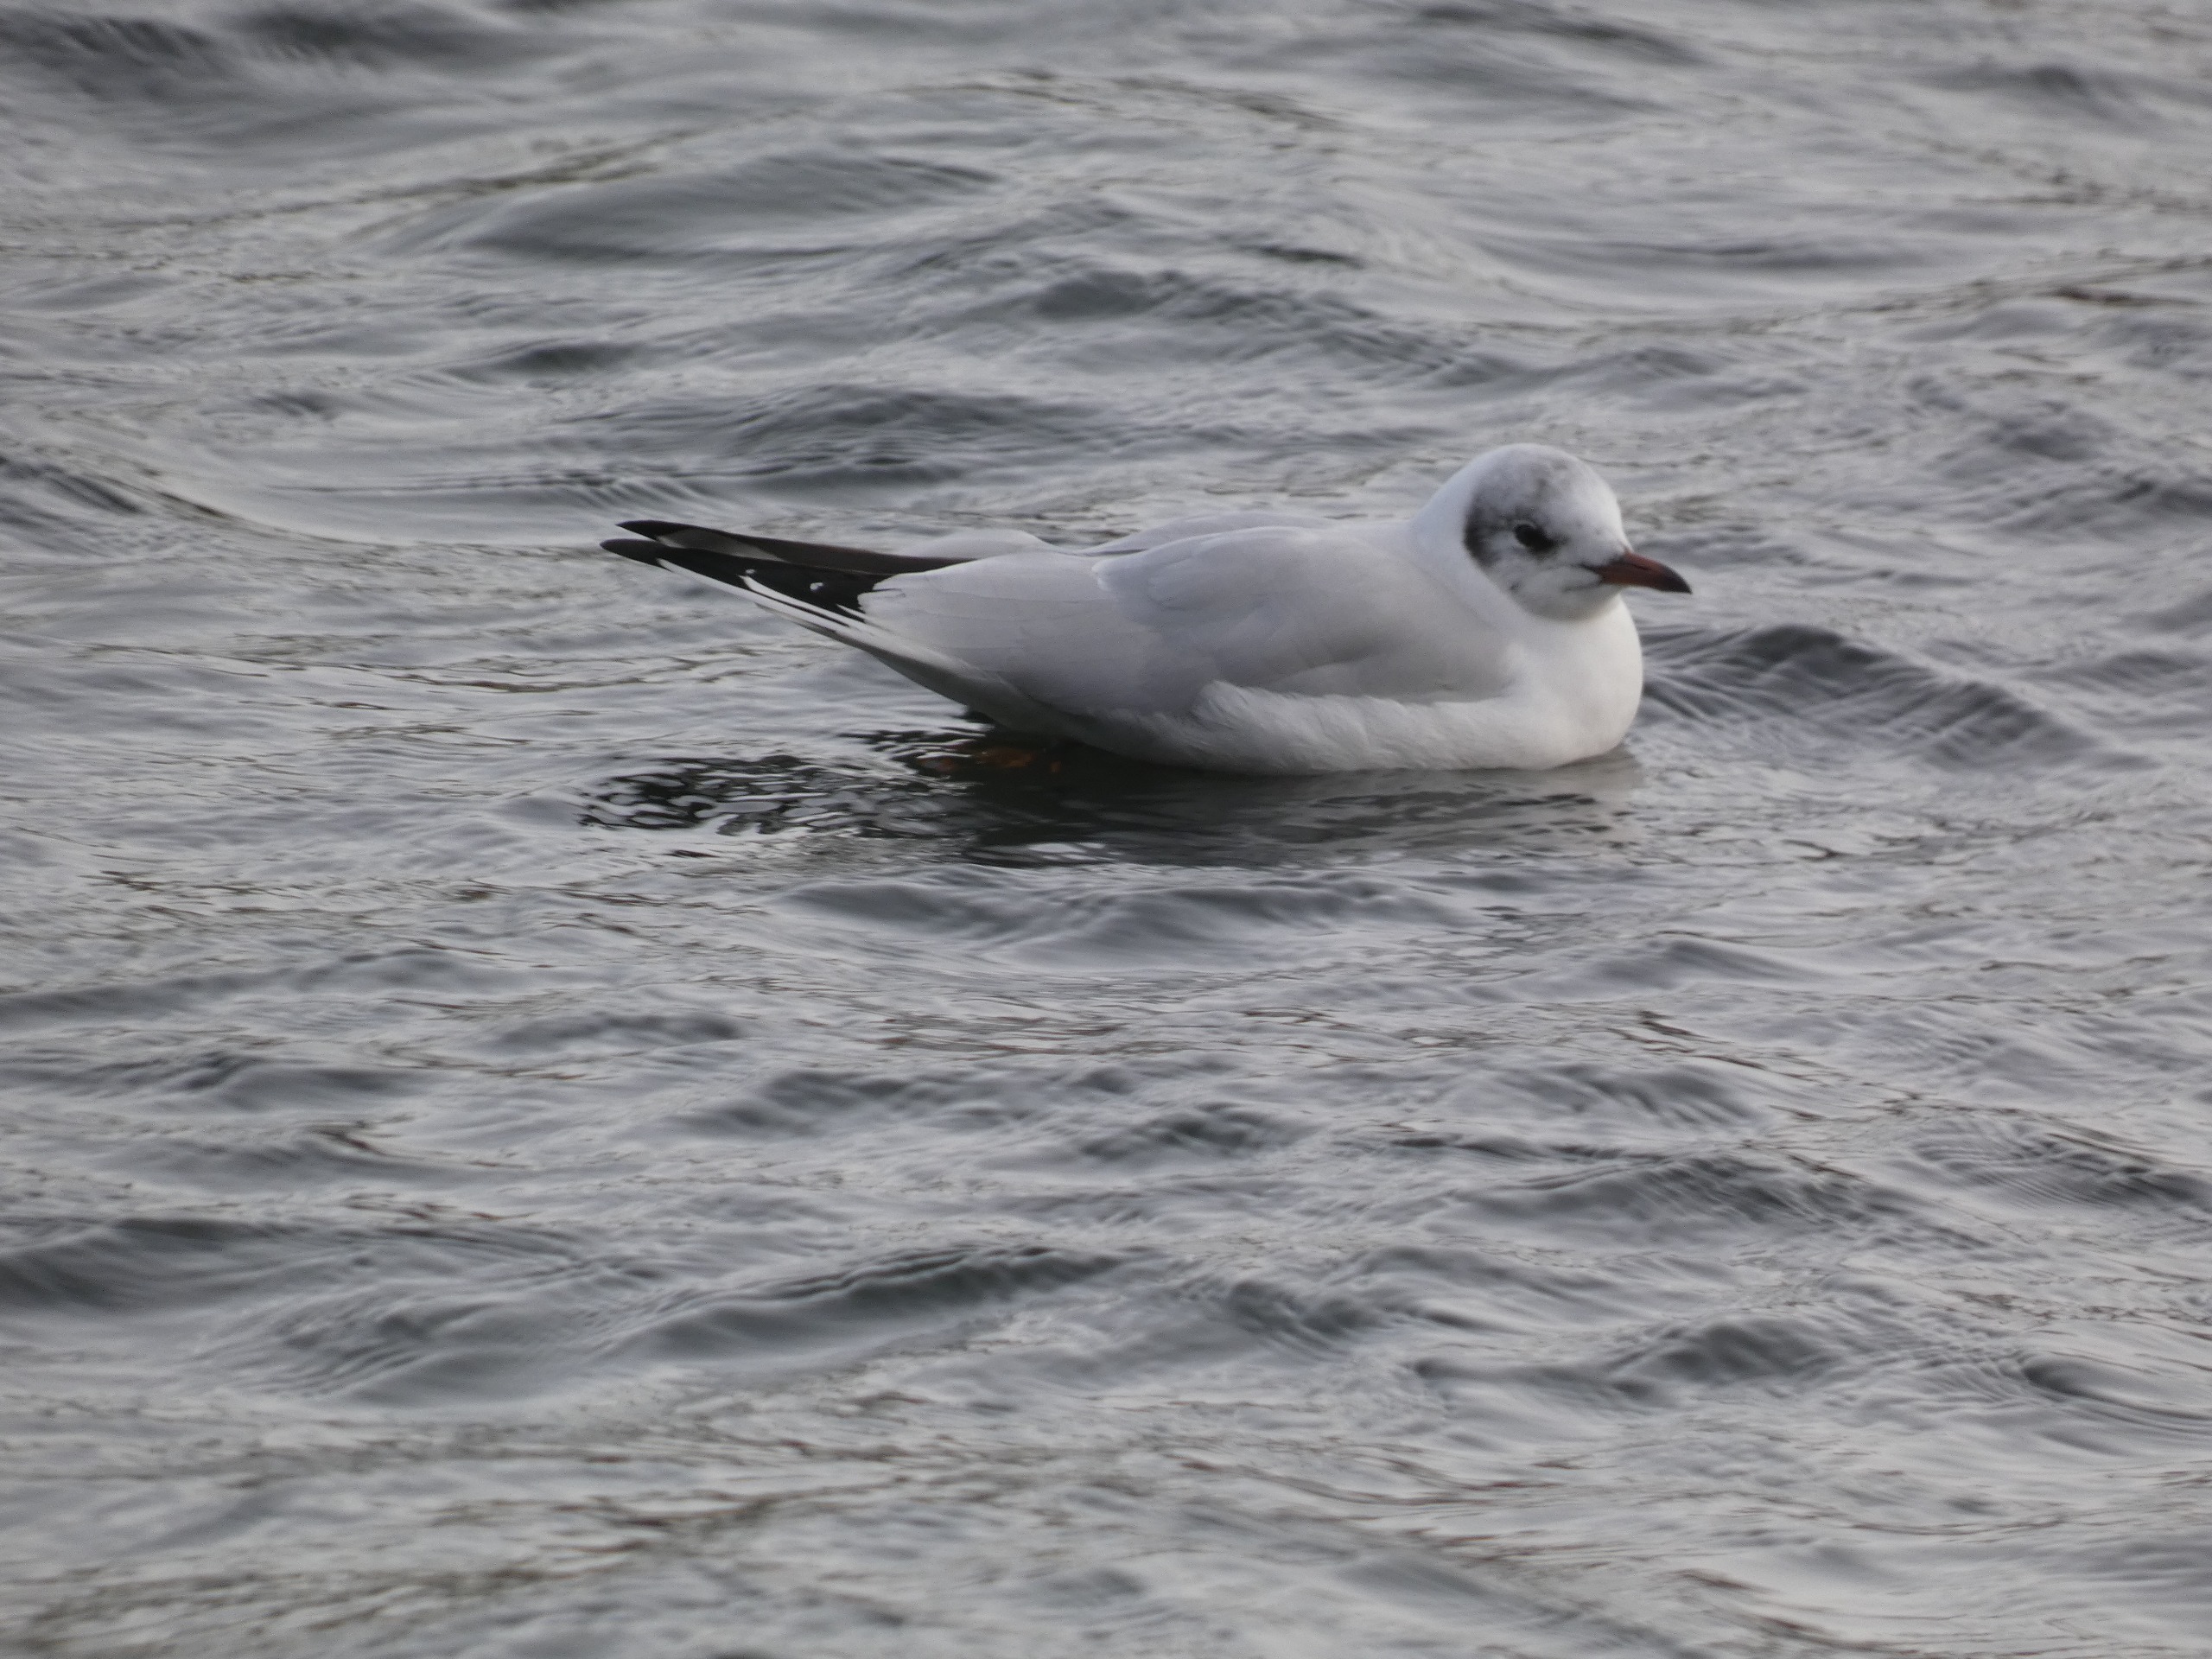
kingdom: Animalia
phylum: Chordata
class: Aves
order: Charadriiformes
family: Laridae
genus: Chroicocephalus
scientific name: Chroicocephalus ridibundus
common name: Hættemåge
